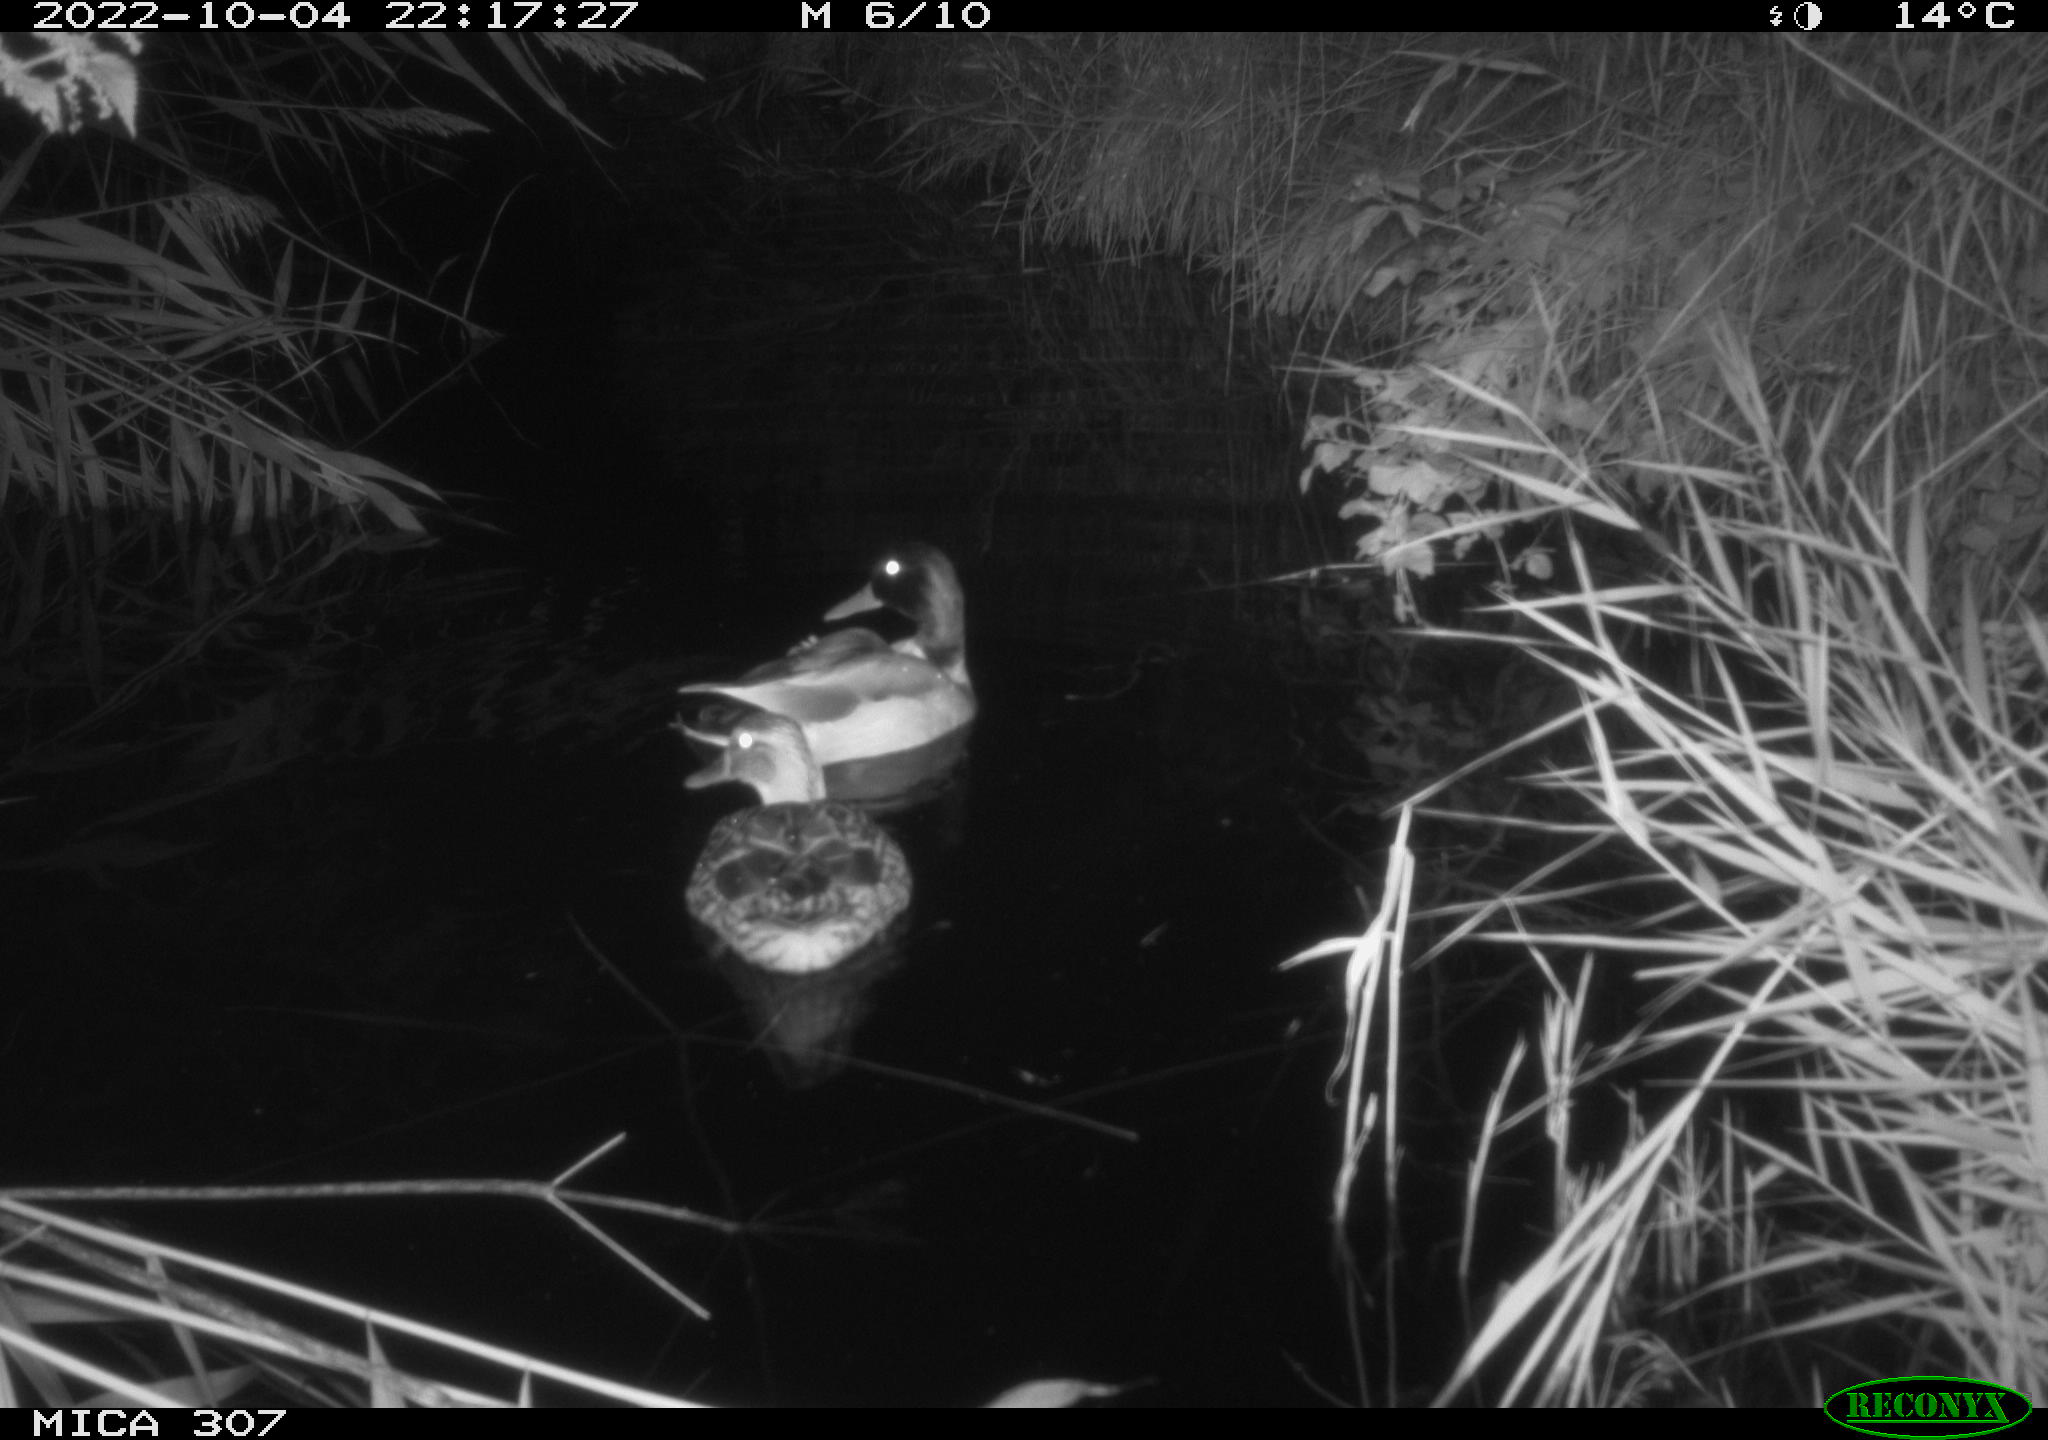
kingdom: Animalia
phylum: Chordata
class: Aves
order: Anseriformes
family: Anatidae
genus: Anas
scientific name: Anas
